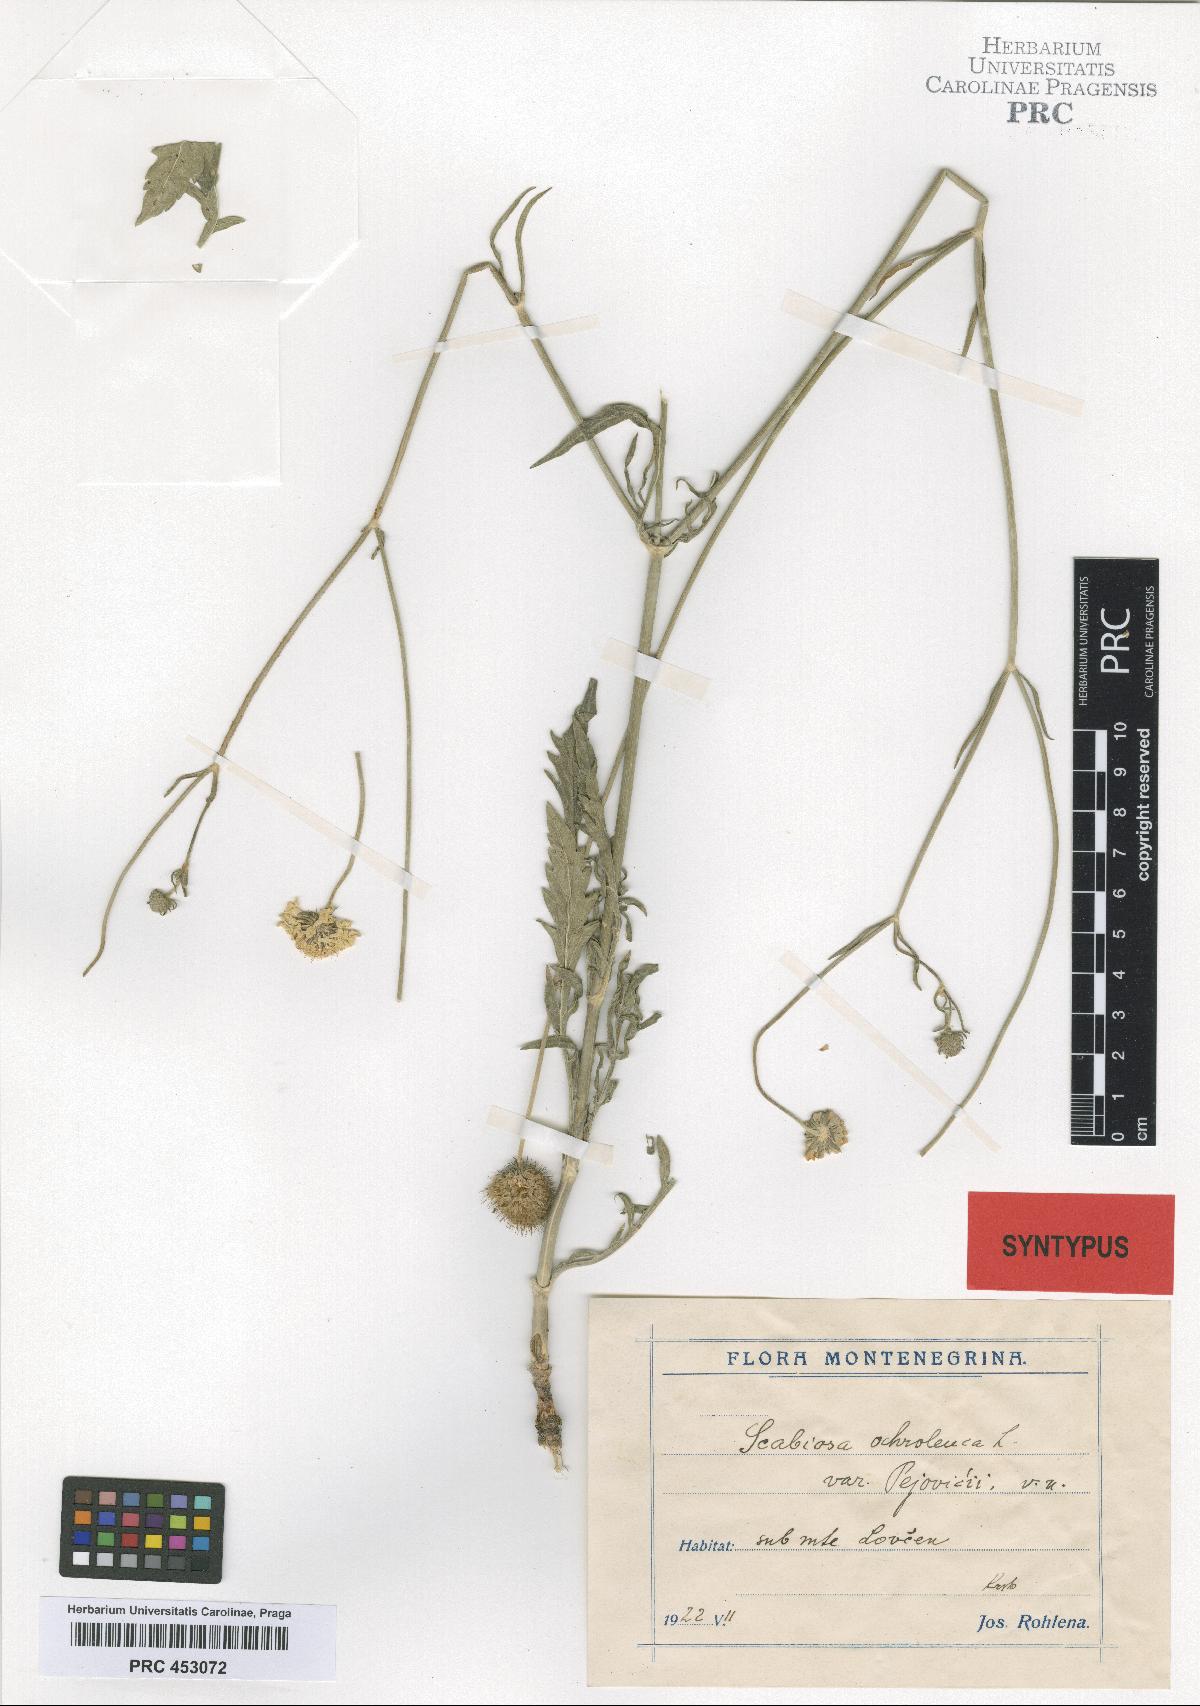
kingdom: Plantae
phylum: Tracheophyta
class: Magnoliopsida
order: Dipsacales
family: Caprifoliaceae
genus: Scabiosa
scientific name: Scabiosa ochroleuca
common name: Cream pincushions
